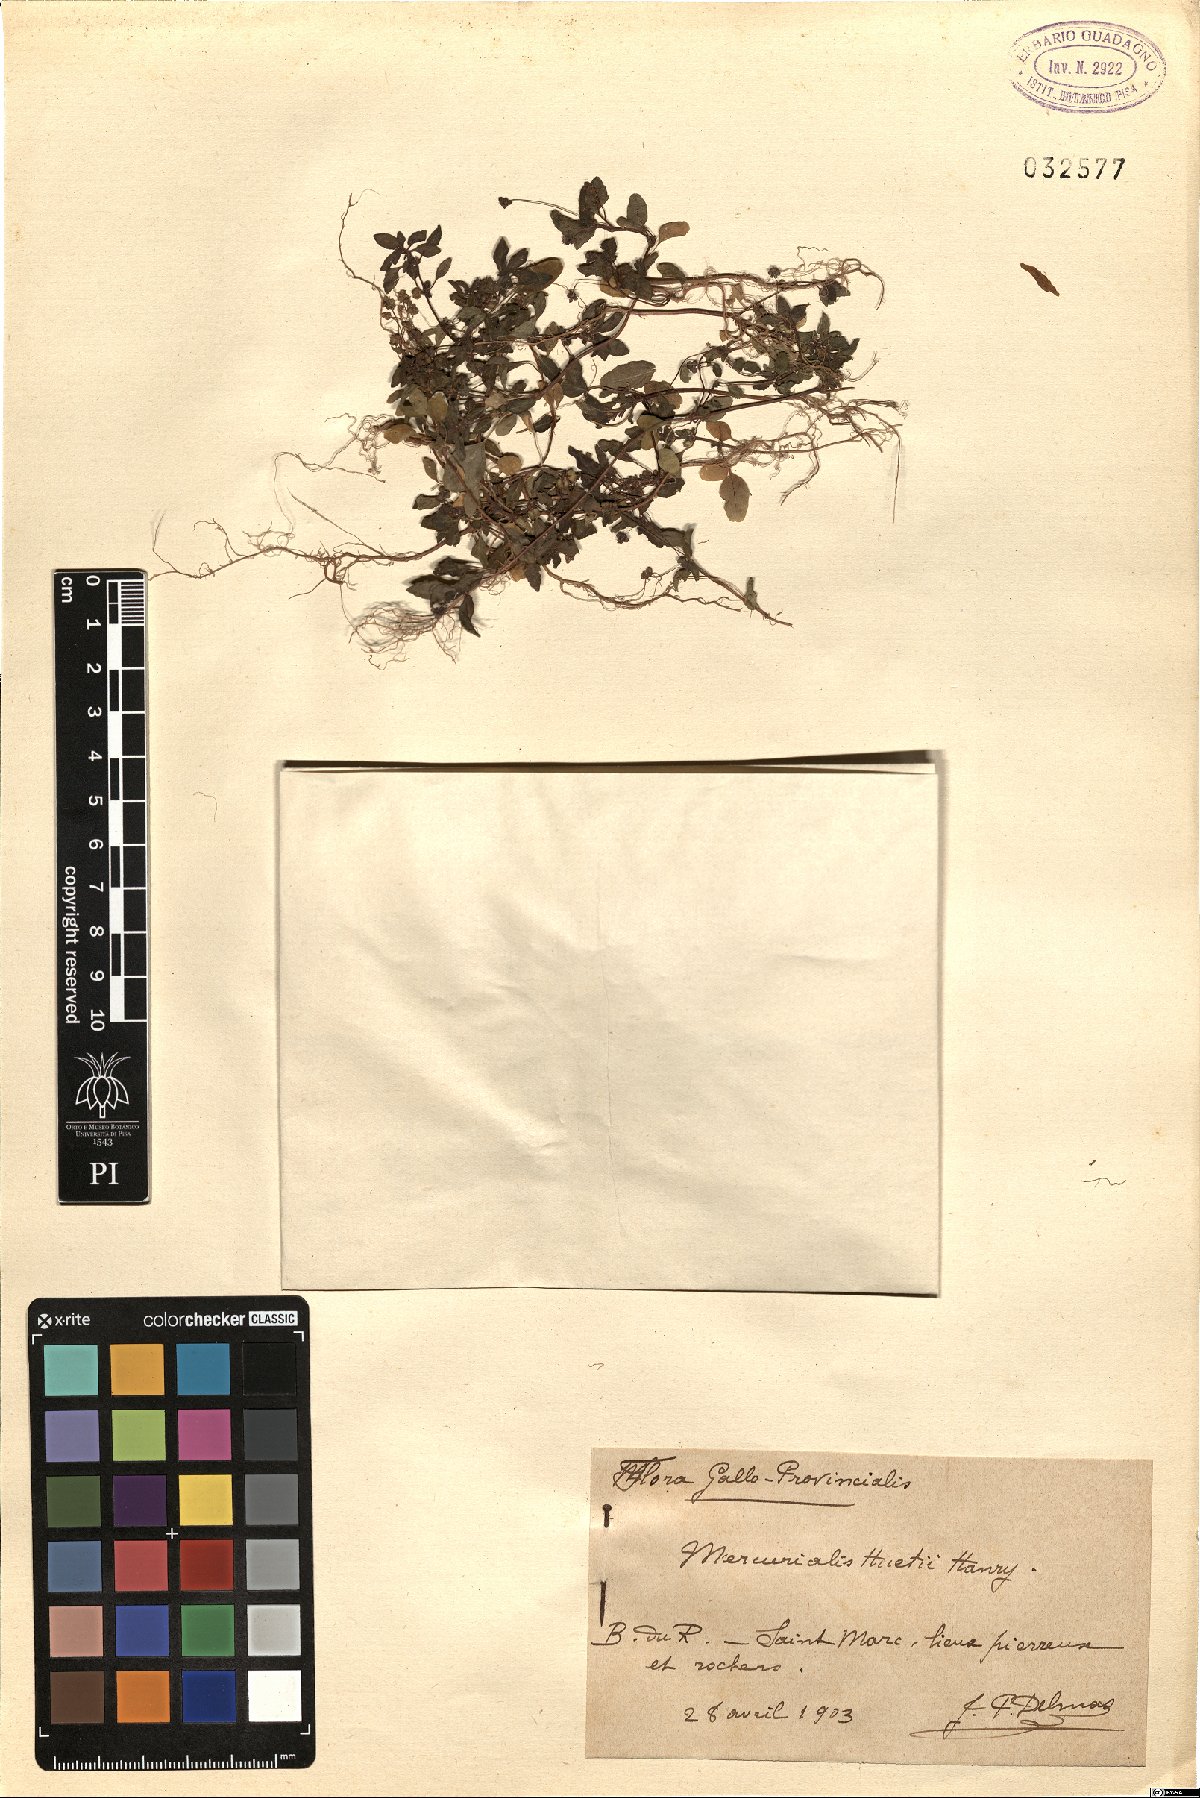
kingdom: Plantae
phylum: Tracheophyta
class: Magnoliopsida
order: Malpighiales
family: Euphorbiaceae
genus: Mercurialis
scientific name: Mercurialis huetii
